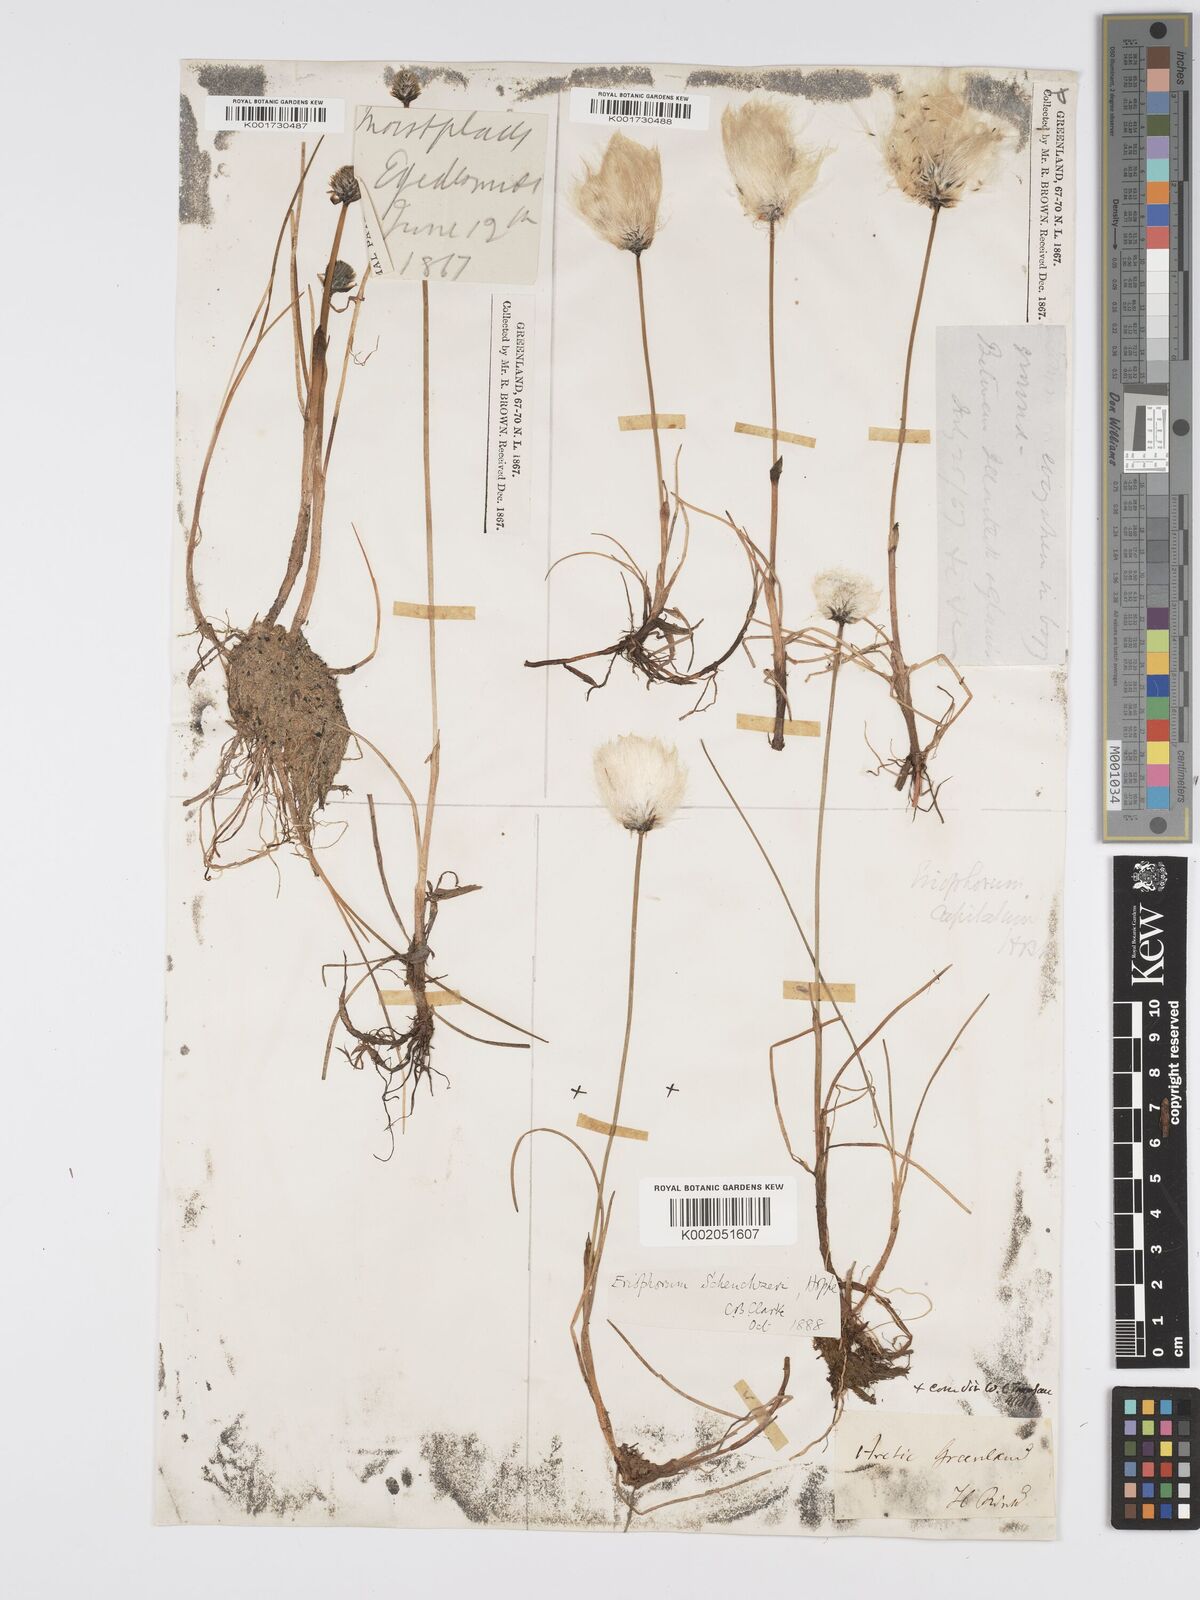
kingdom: Plantae
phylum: Tracheophyta
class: Liliopsida
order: Poales
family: Cyperaceae
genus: Eriophorum
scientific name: Eriophorum scheuchzeri
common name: Scheuchzer's cottongrass
